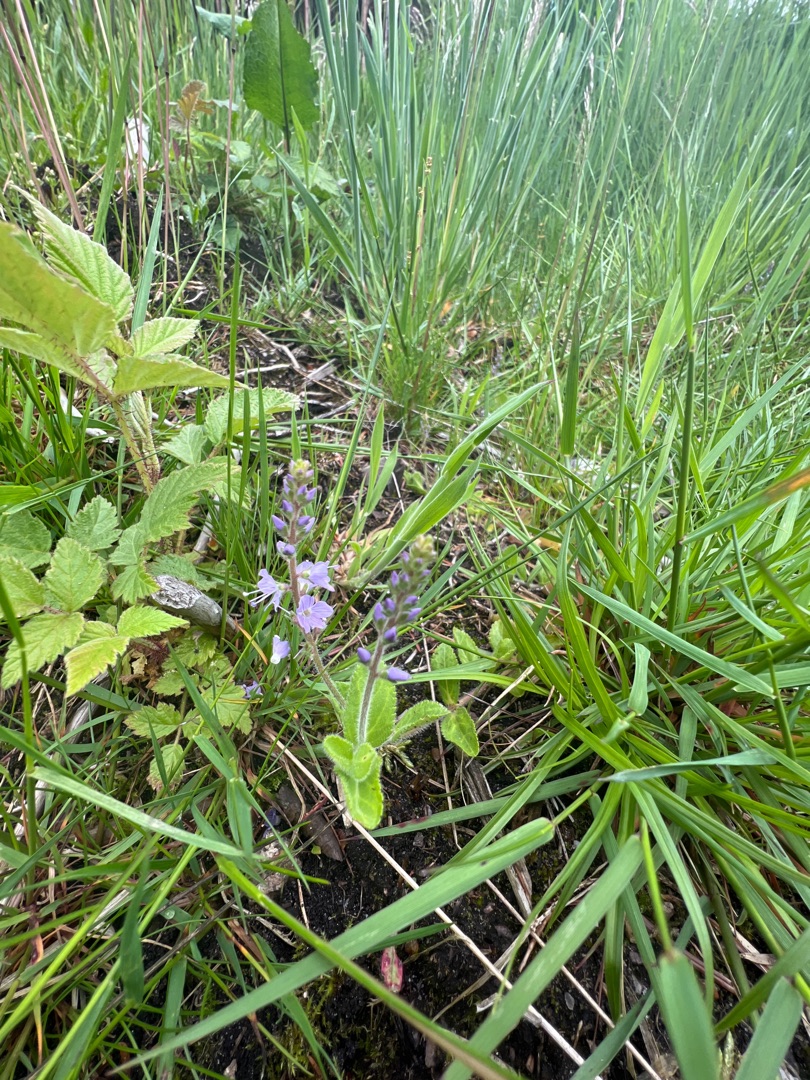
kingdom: Plantae
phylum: Tracheophyta
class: Magnoliopsida
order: Lamiales
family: Plantaginaceae
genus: Veronica
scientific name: Veronica officinalis
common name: Læge-ærenpris
